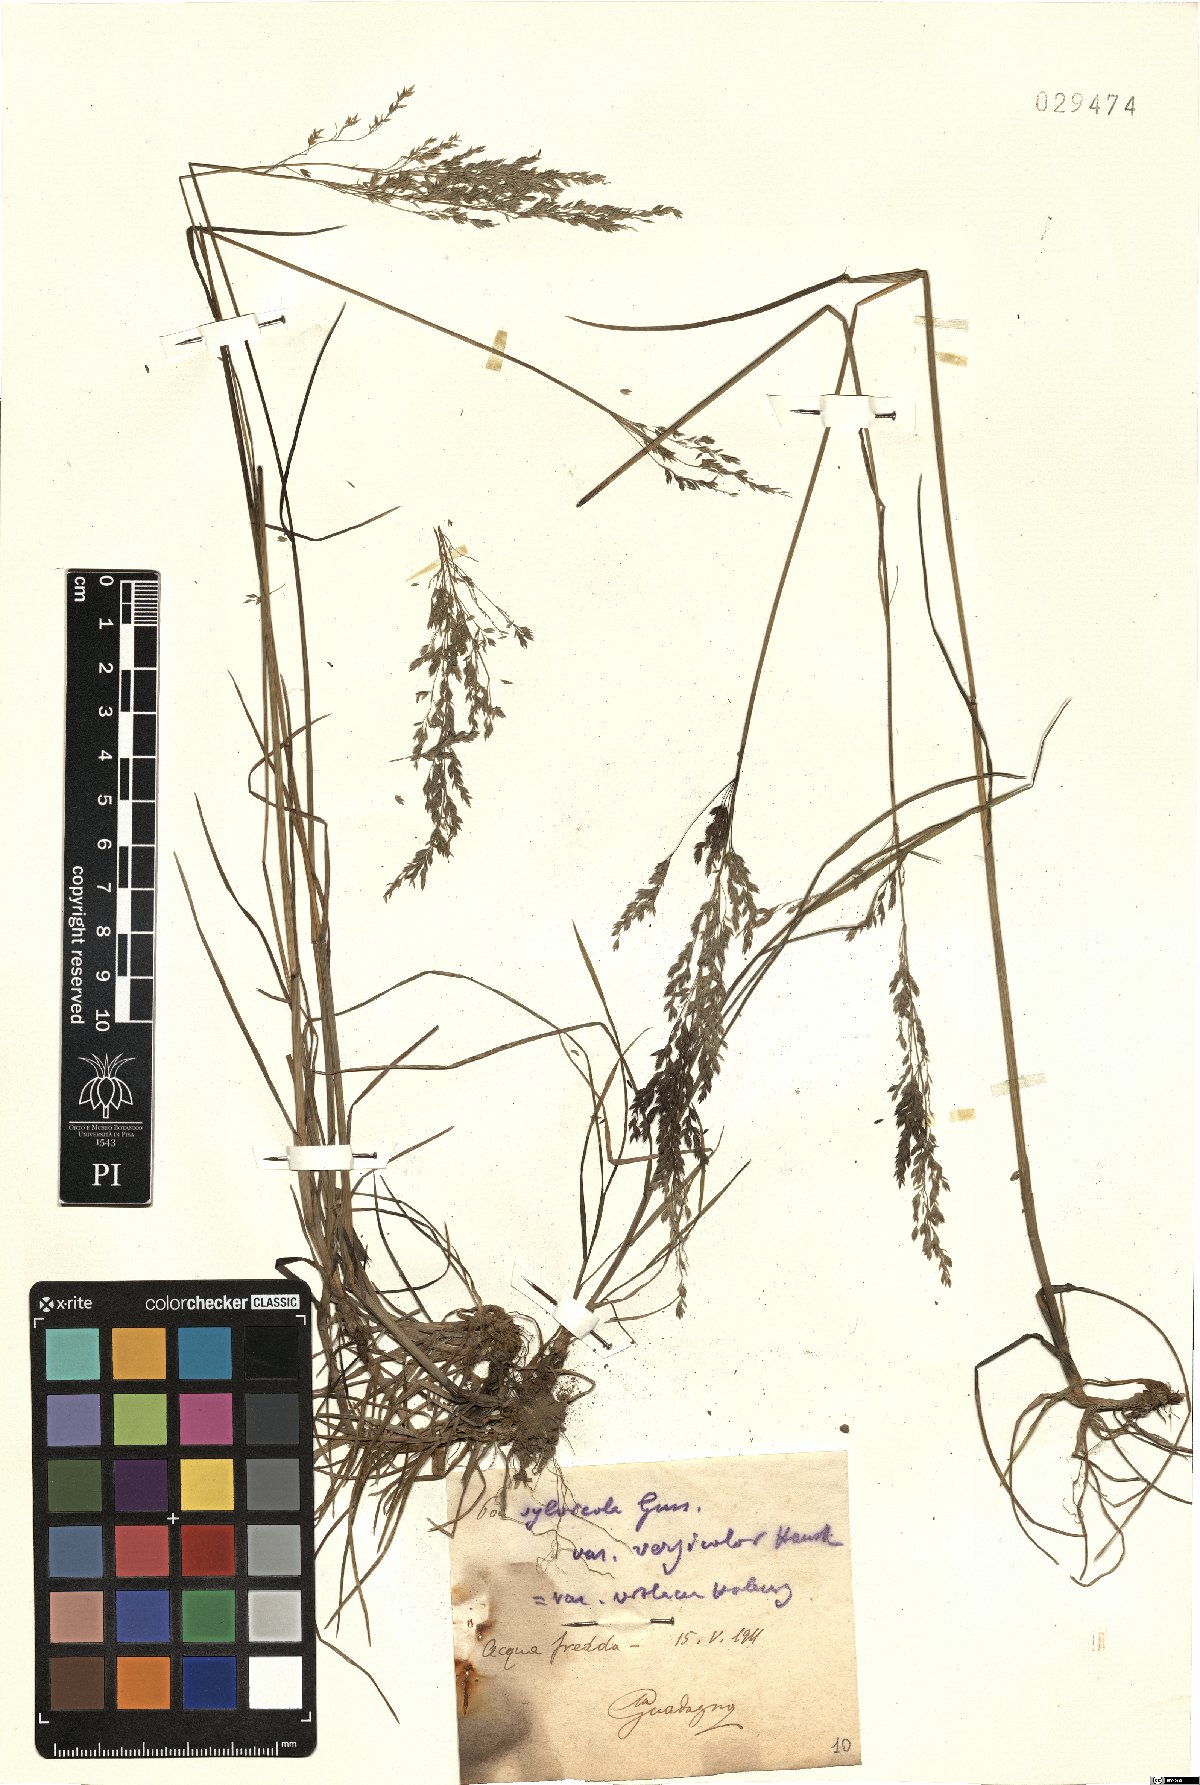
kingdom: Plantae
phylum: Tracheophyta
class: Liliopsida
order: Poales
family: Poaceae
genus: Poa
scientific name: Poa trivialis
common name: Rough bluegrass
